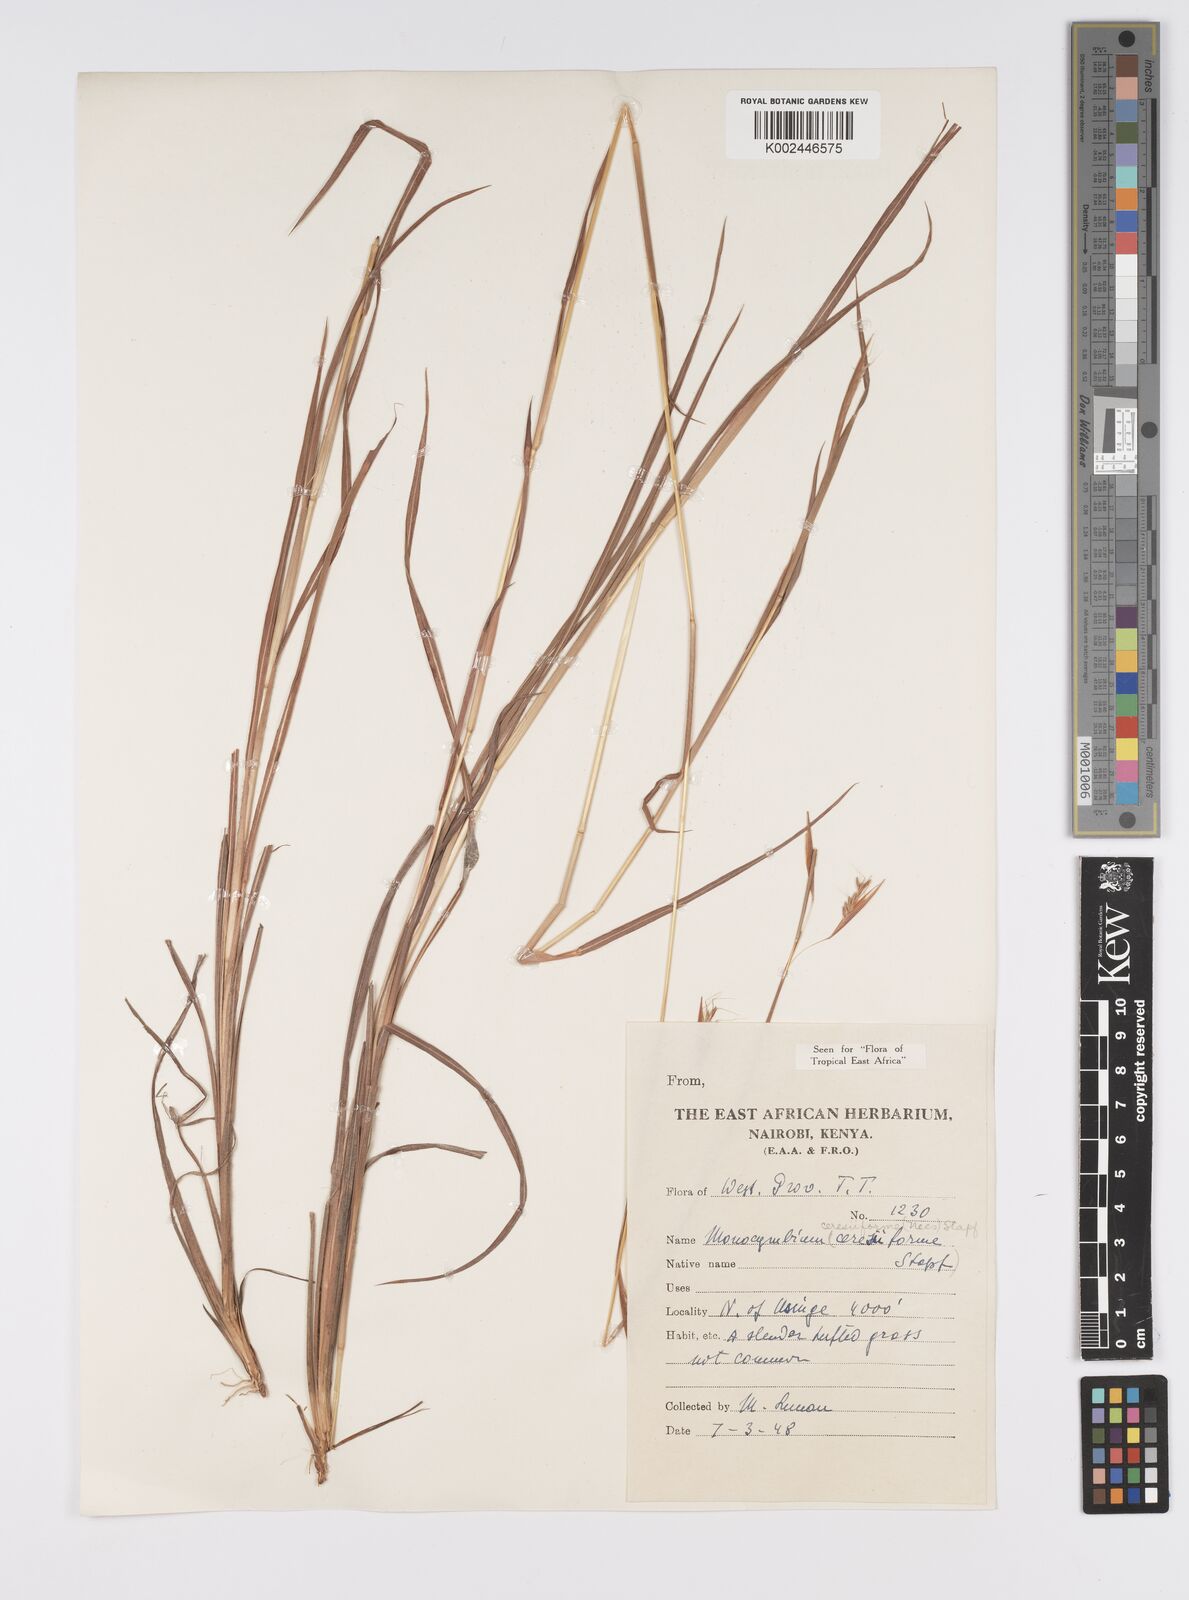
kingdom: Plantae
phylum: Tracheophyta
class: Liliopsida
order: Poales
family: Poaceae
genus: Monocymbium
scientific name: Monocymbium ceresiiforme
